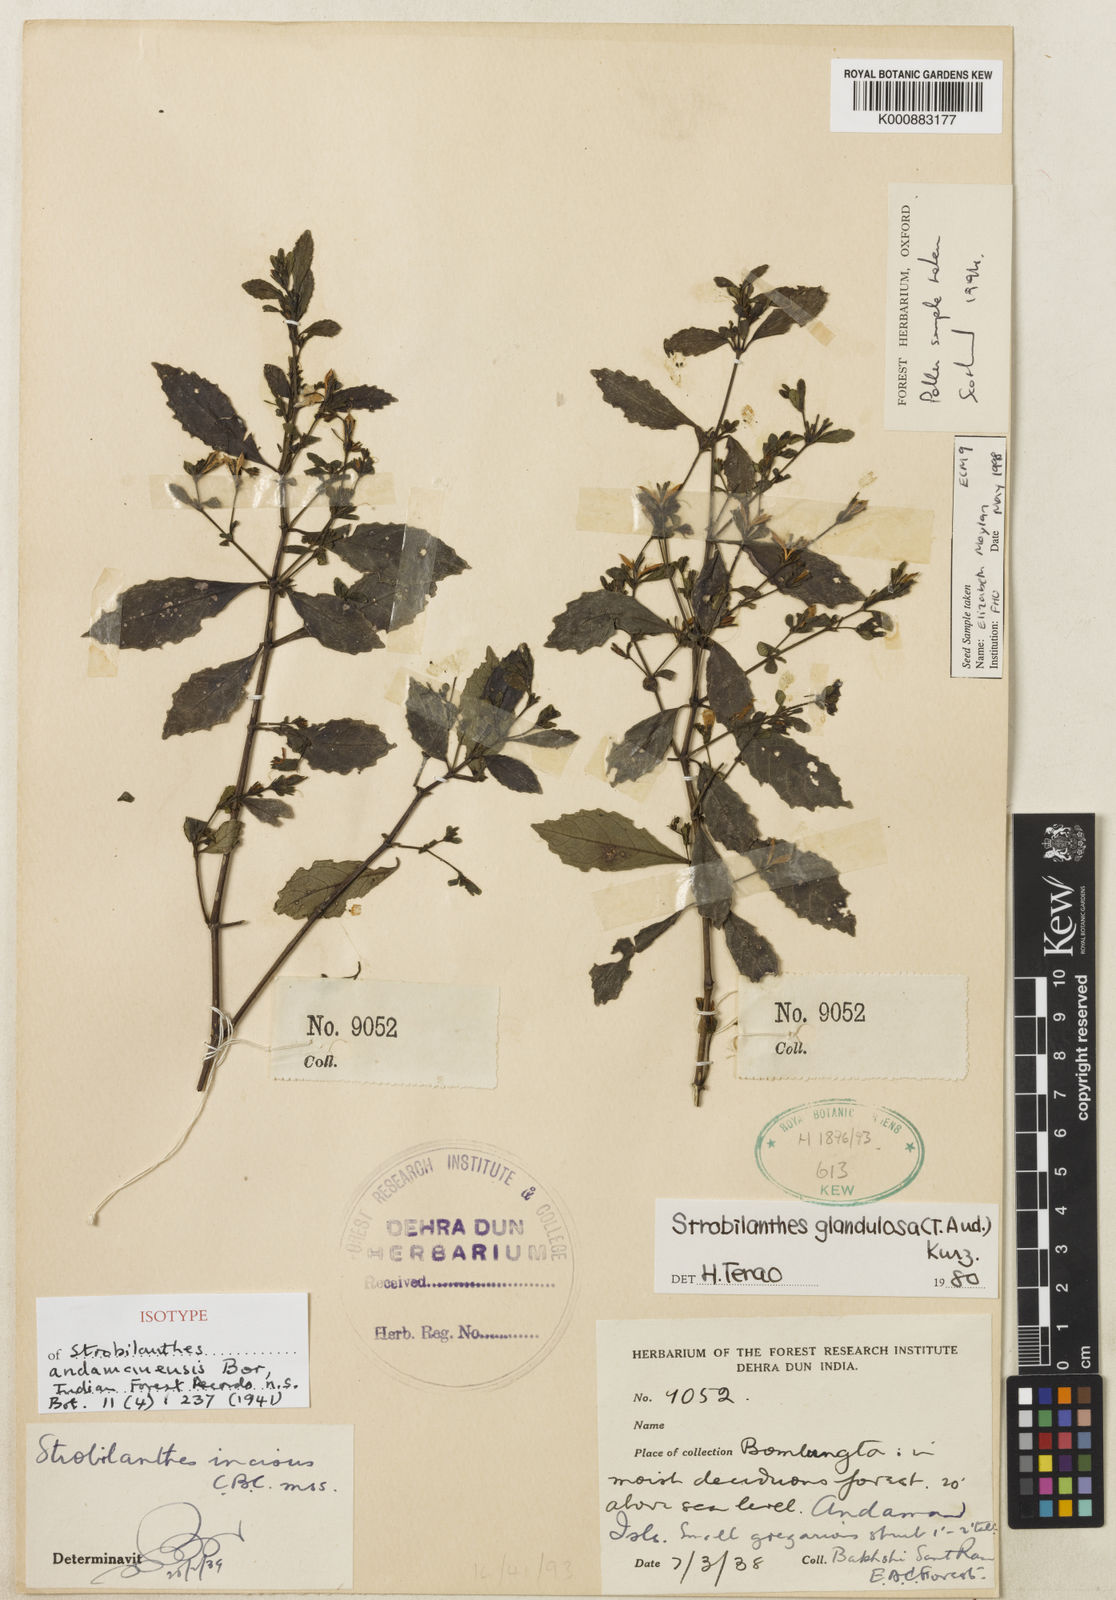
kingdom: Plantae
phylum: Tracheophyta
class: Magnoliopsida
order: Lamiales
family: Acanthaceae
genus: Strobilanthes
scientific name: Strobilanthes andamanensis
